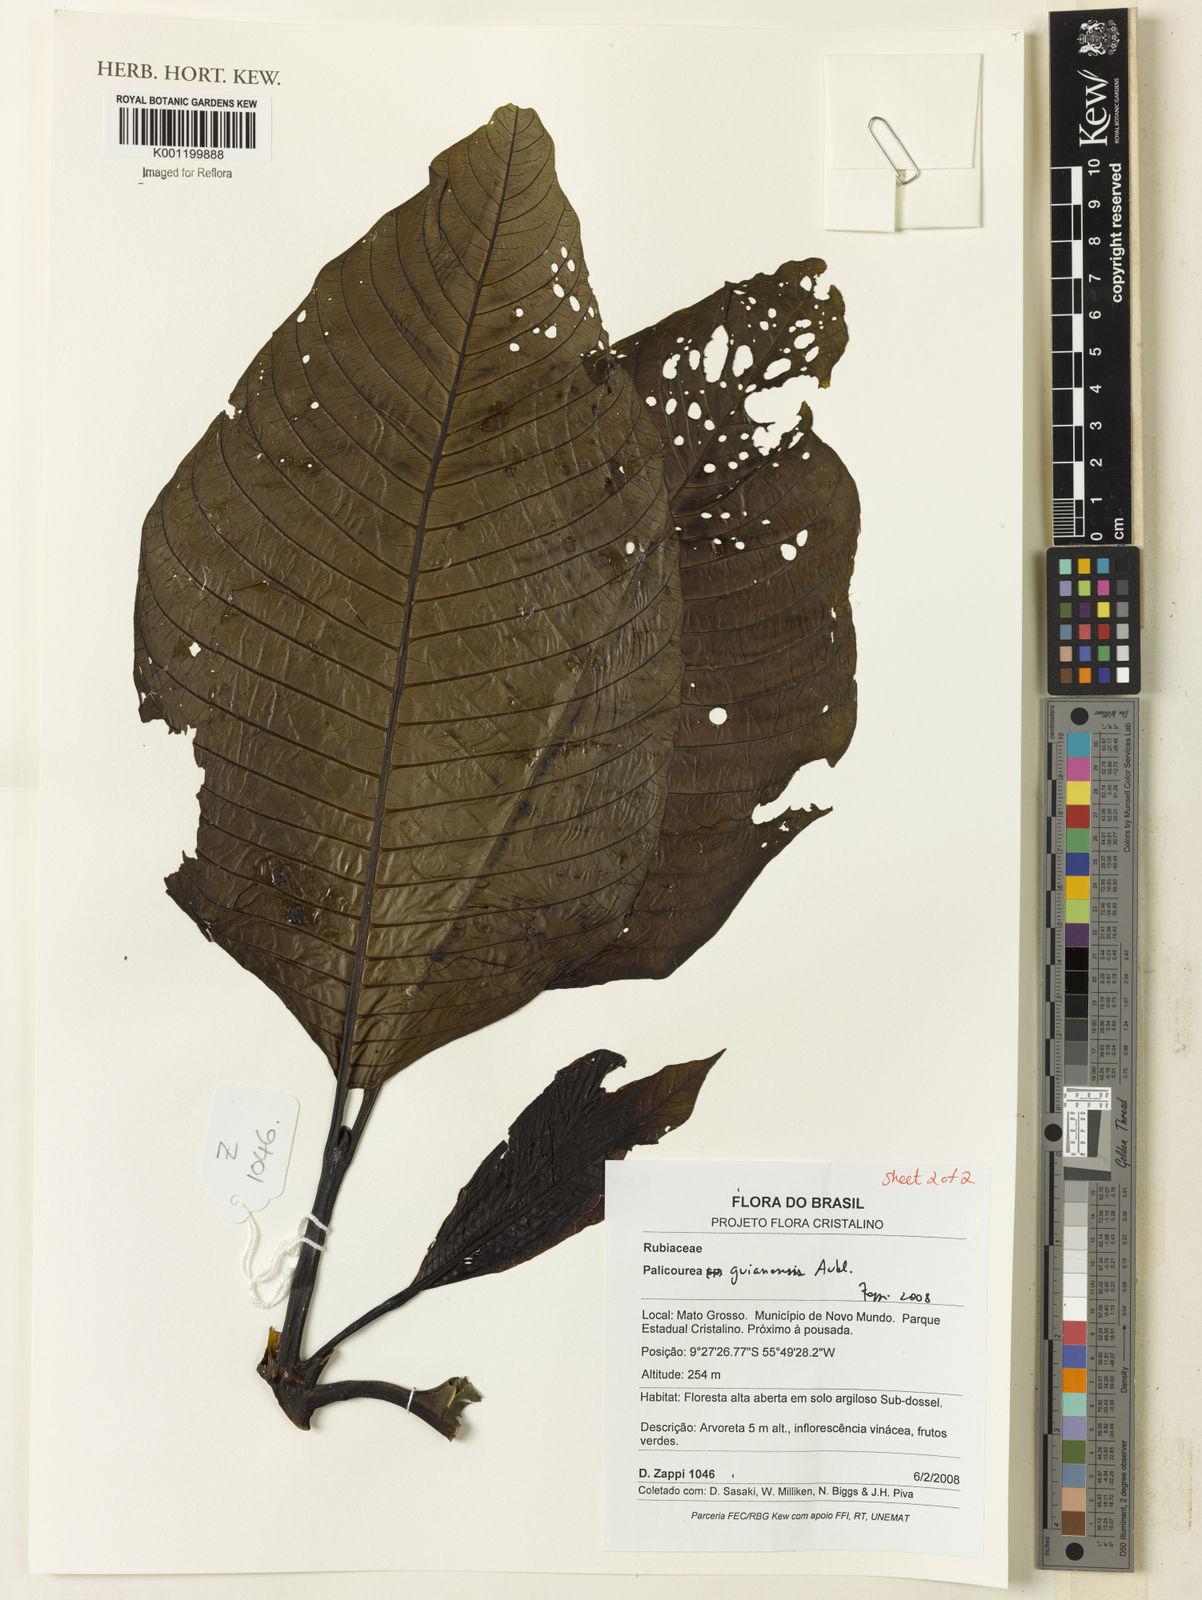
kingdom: Plantae
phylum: Tracheophyta
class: Magnoliopsida
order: Gentianales
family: Rubiaceae
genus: Palicourea
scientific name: Palicourea guianensis
